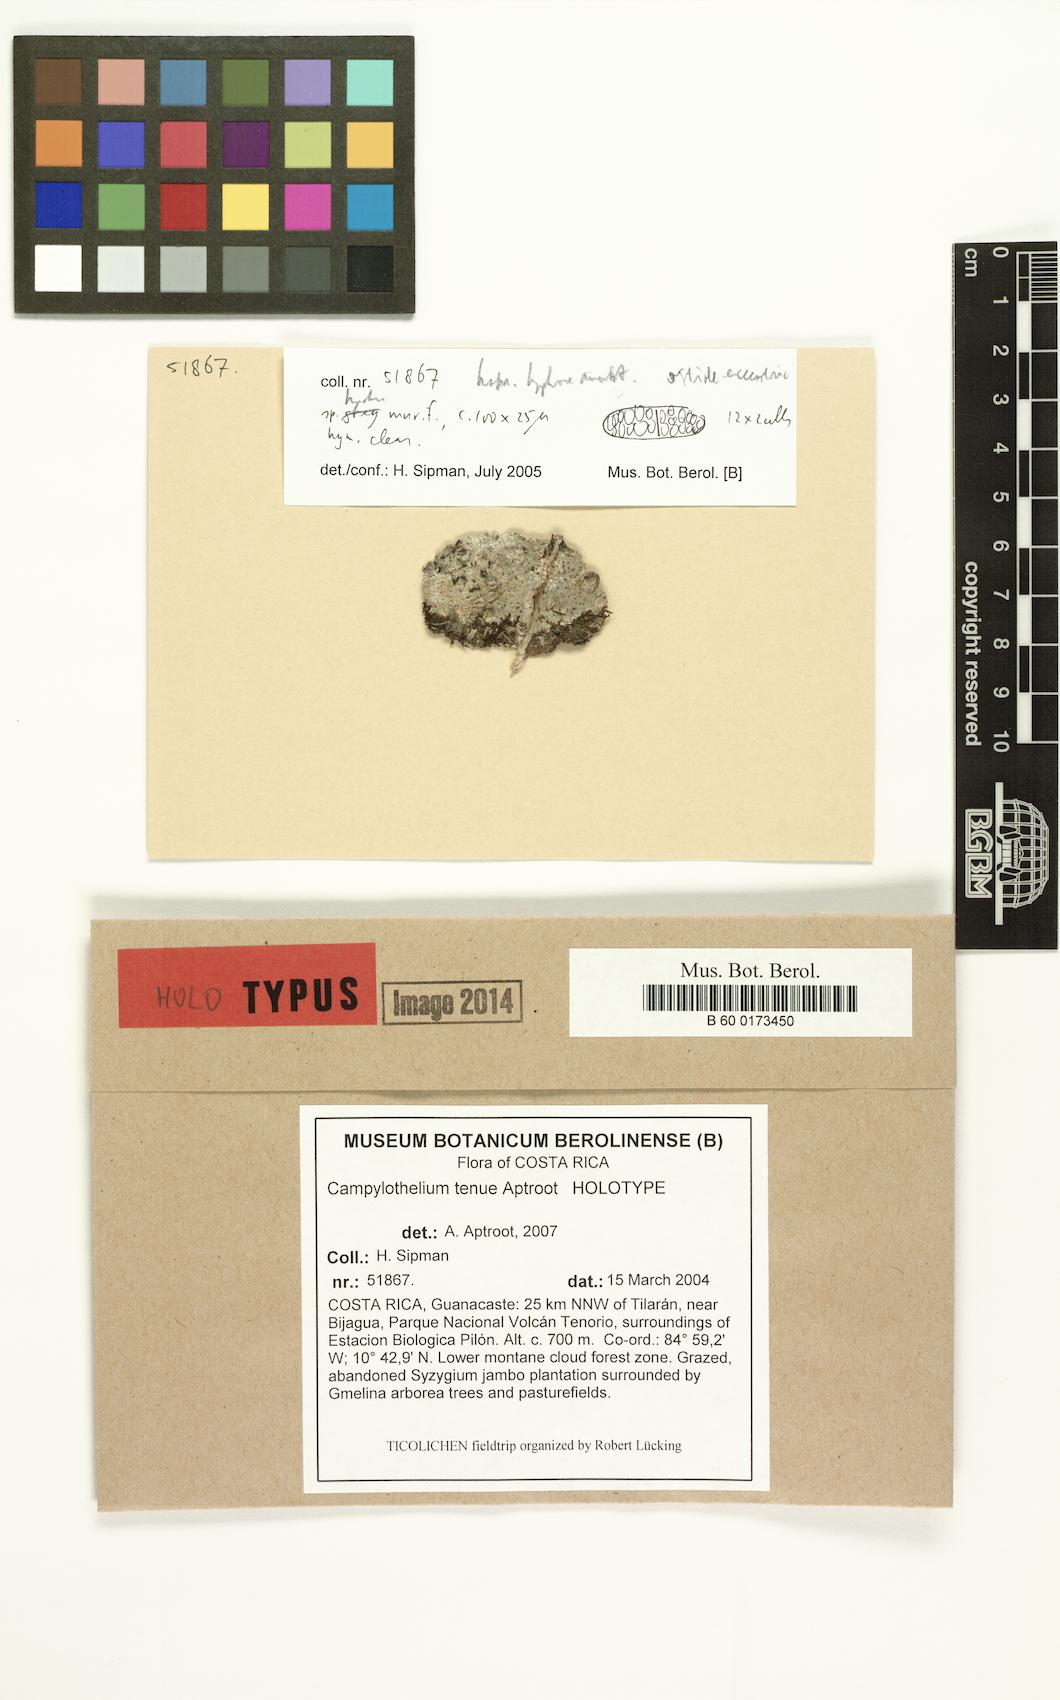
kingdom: Fungi
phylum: Ascomycota
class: Dothideomycetes
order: Trypetheliales
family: Trypetheliaceae
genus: Astrothelium
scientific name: Astrothelium tenue
